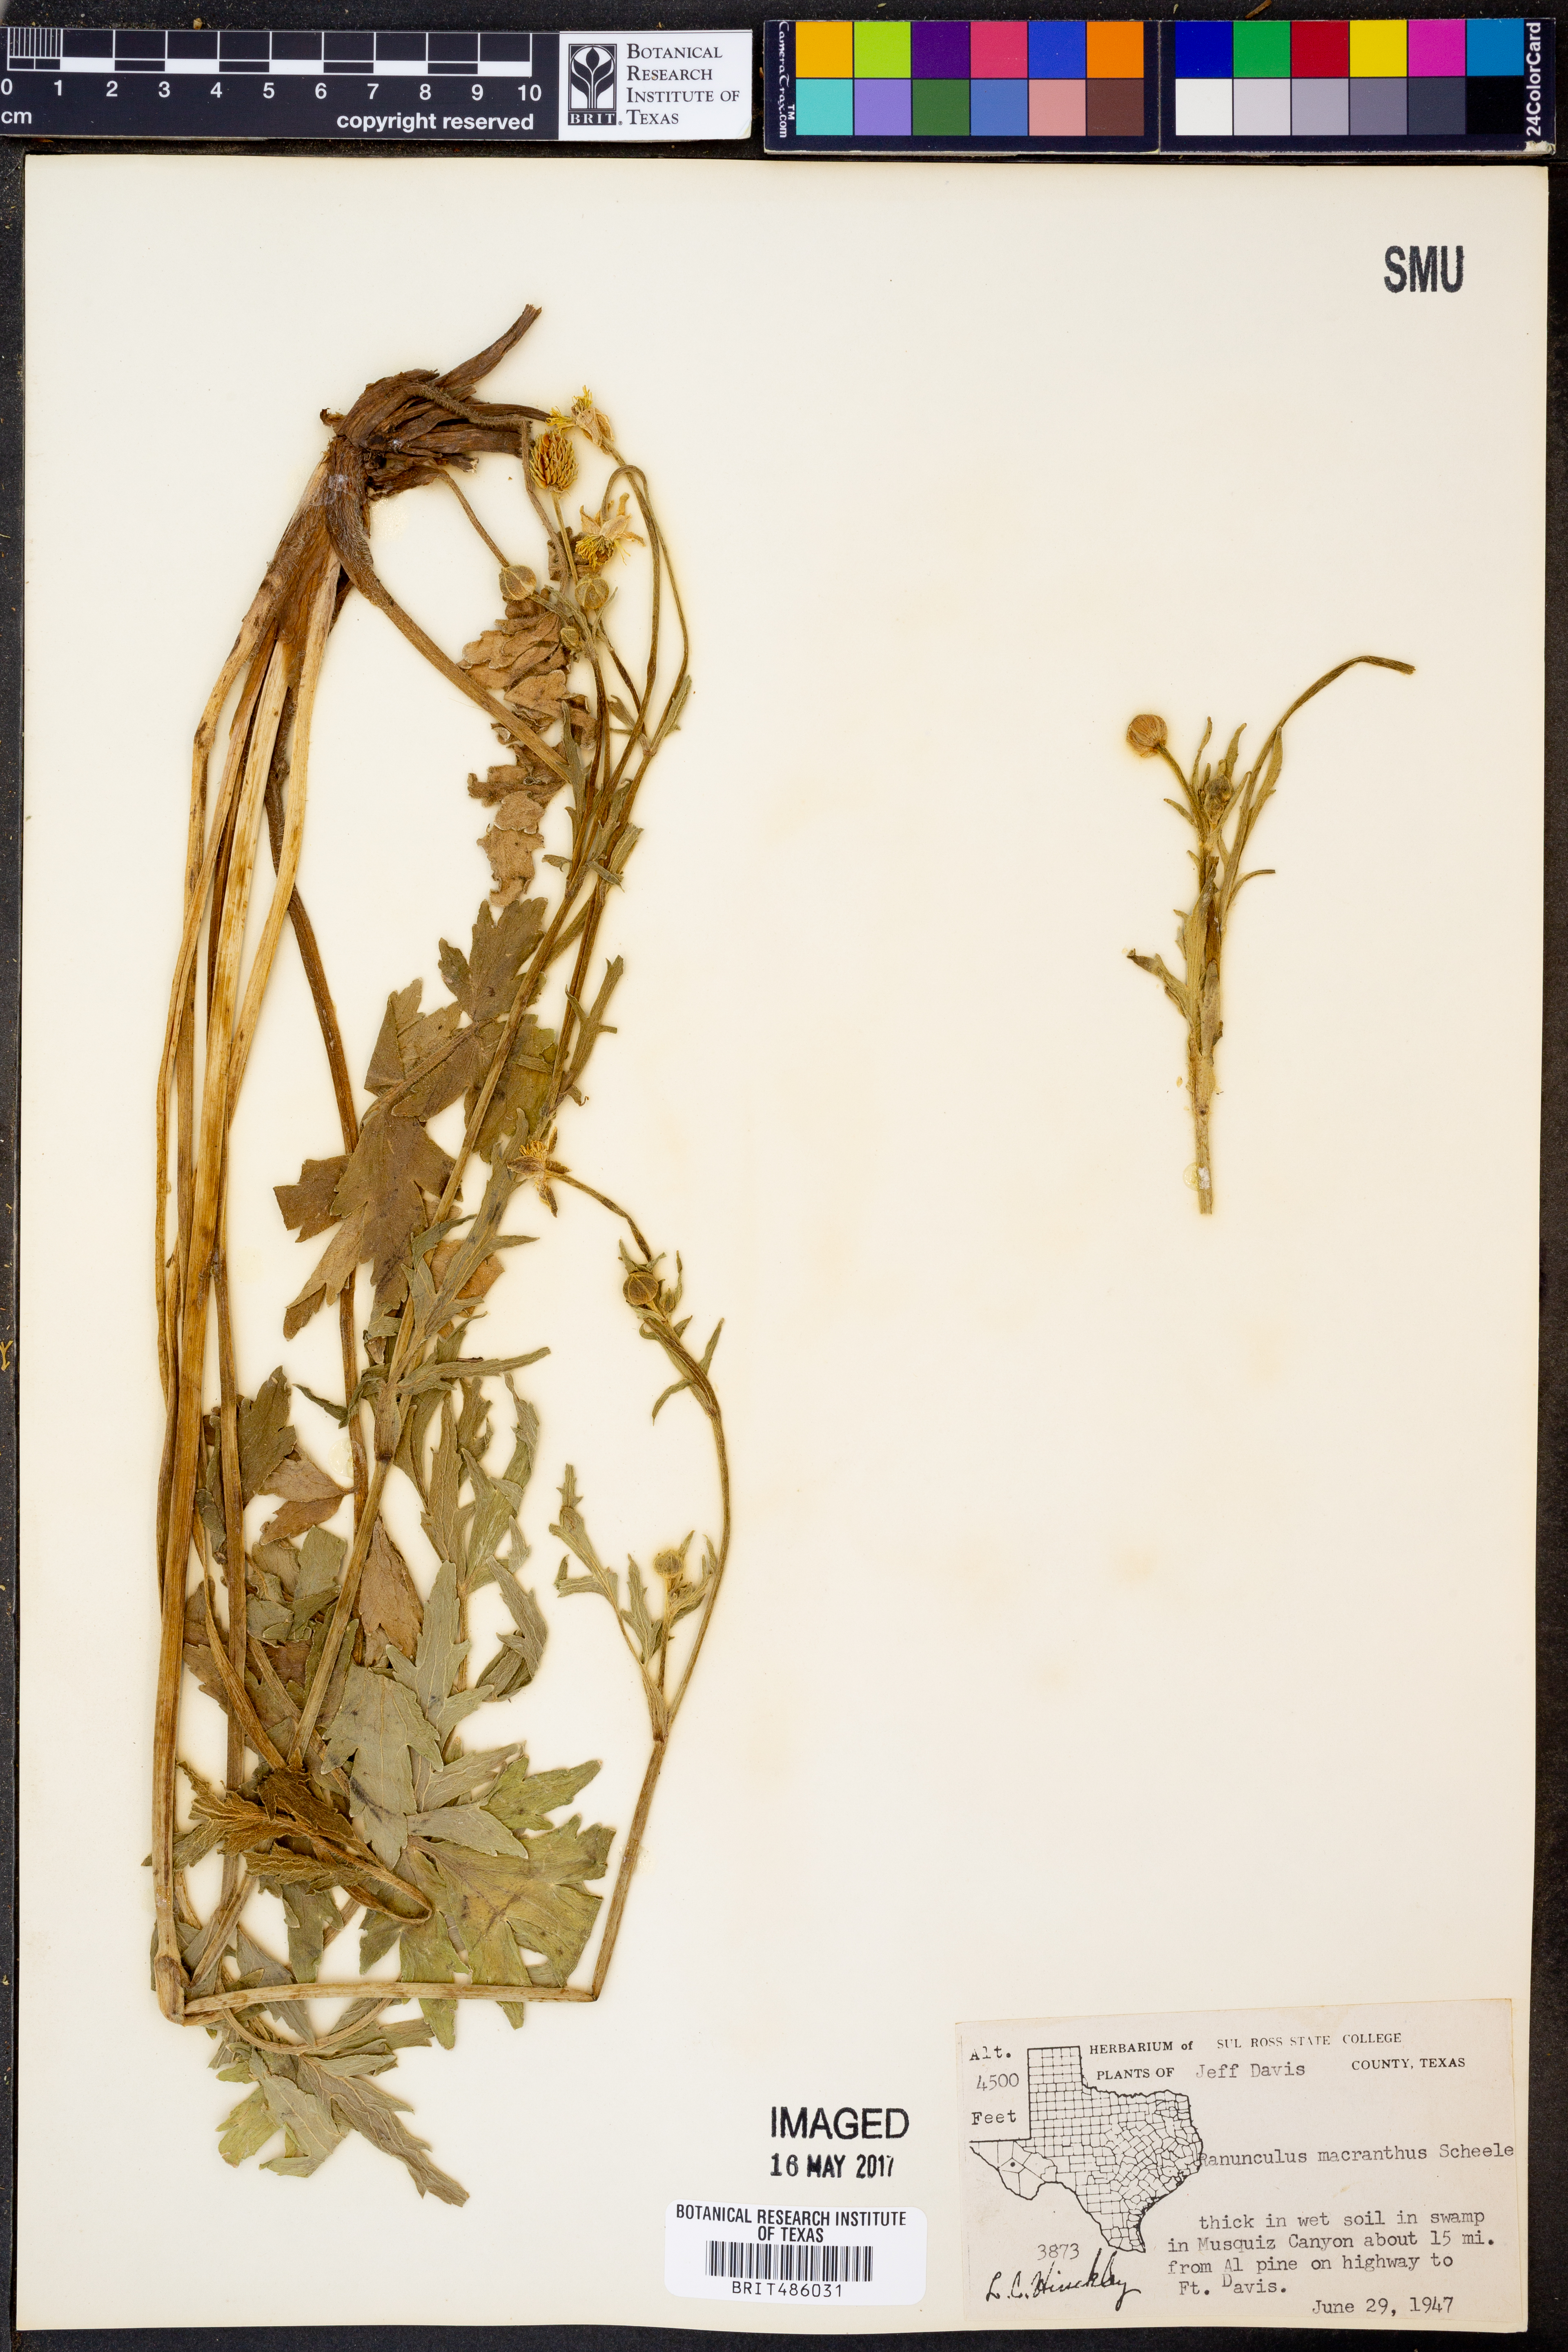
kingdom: Plantae
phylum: Tracheophyta
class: Magnoliopsida
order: Ranunculales
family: Ranunculaceae
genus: Ranunculus
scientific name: Ranunculus macranthus
